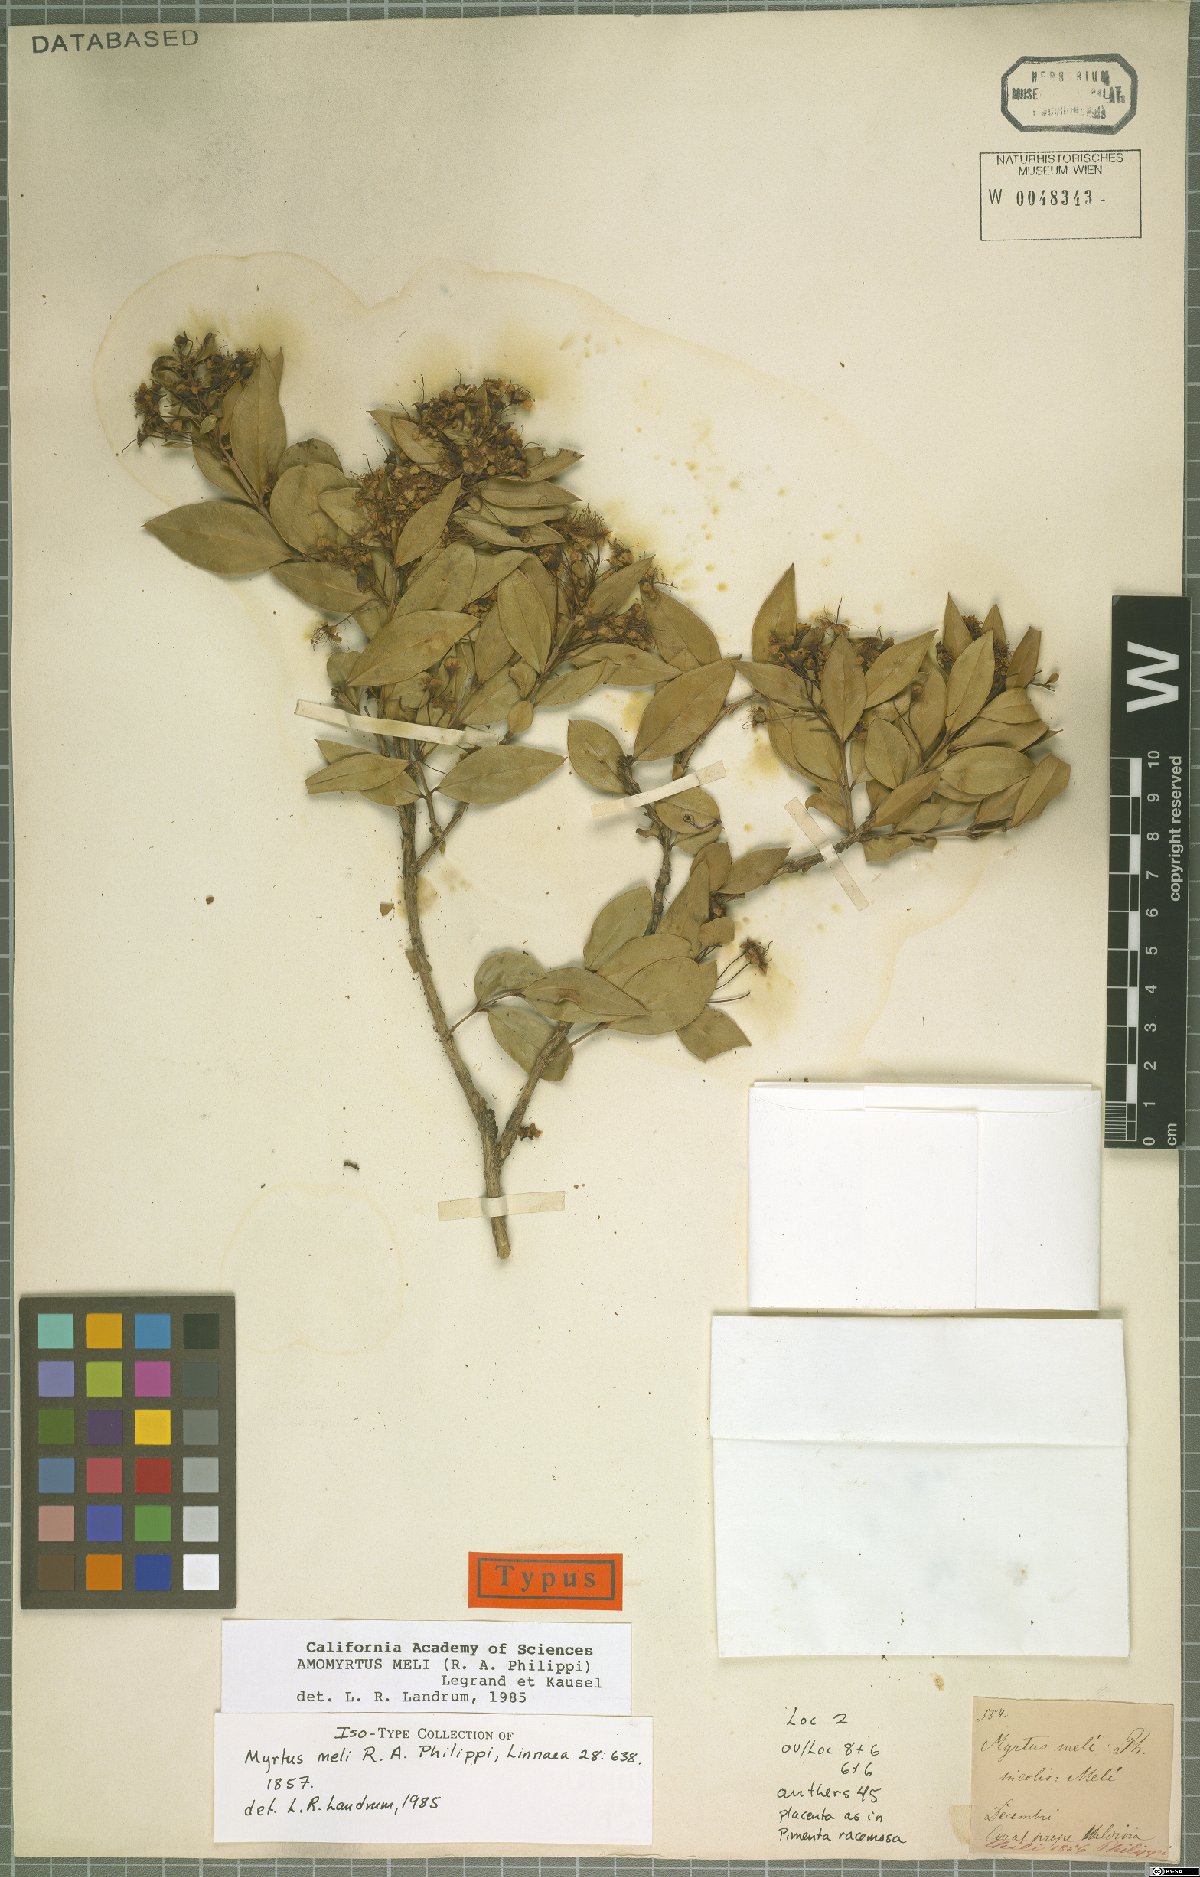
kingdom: Plantae
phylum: Tracheophyta
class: Magnoliopsida
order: Myrtales
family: Myrtaceae
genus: Amomyrtus
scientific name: Amomyrtus meli
